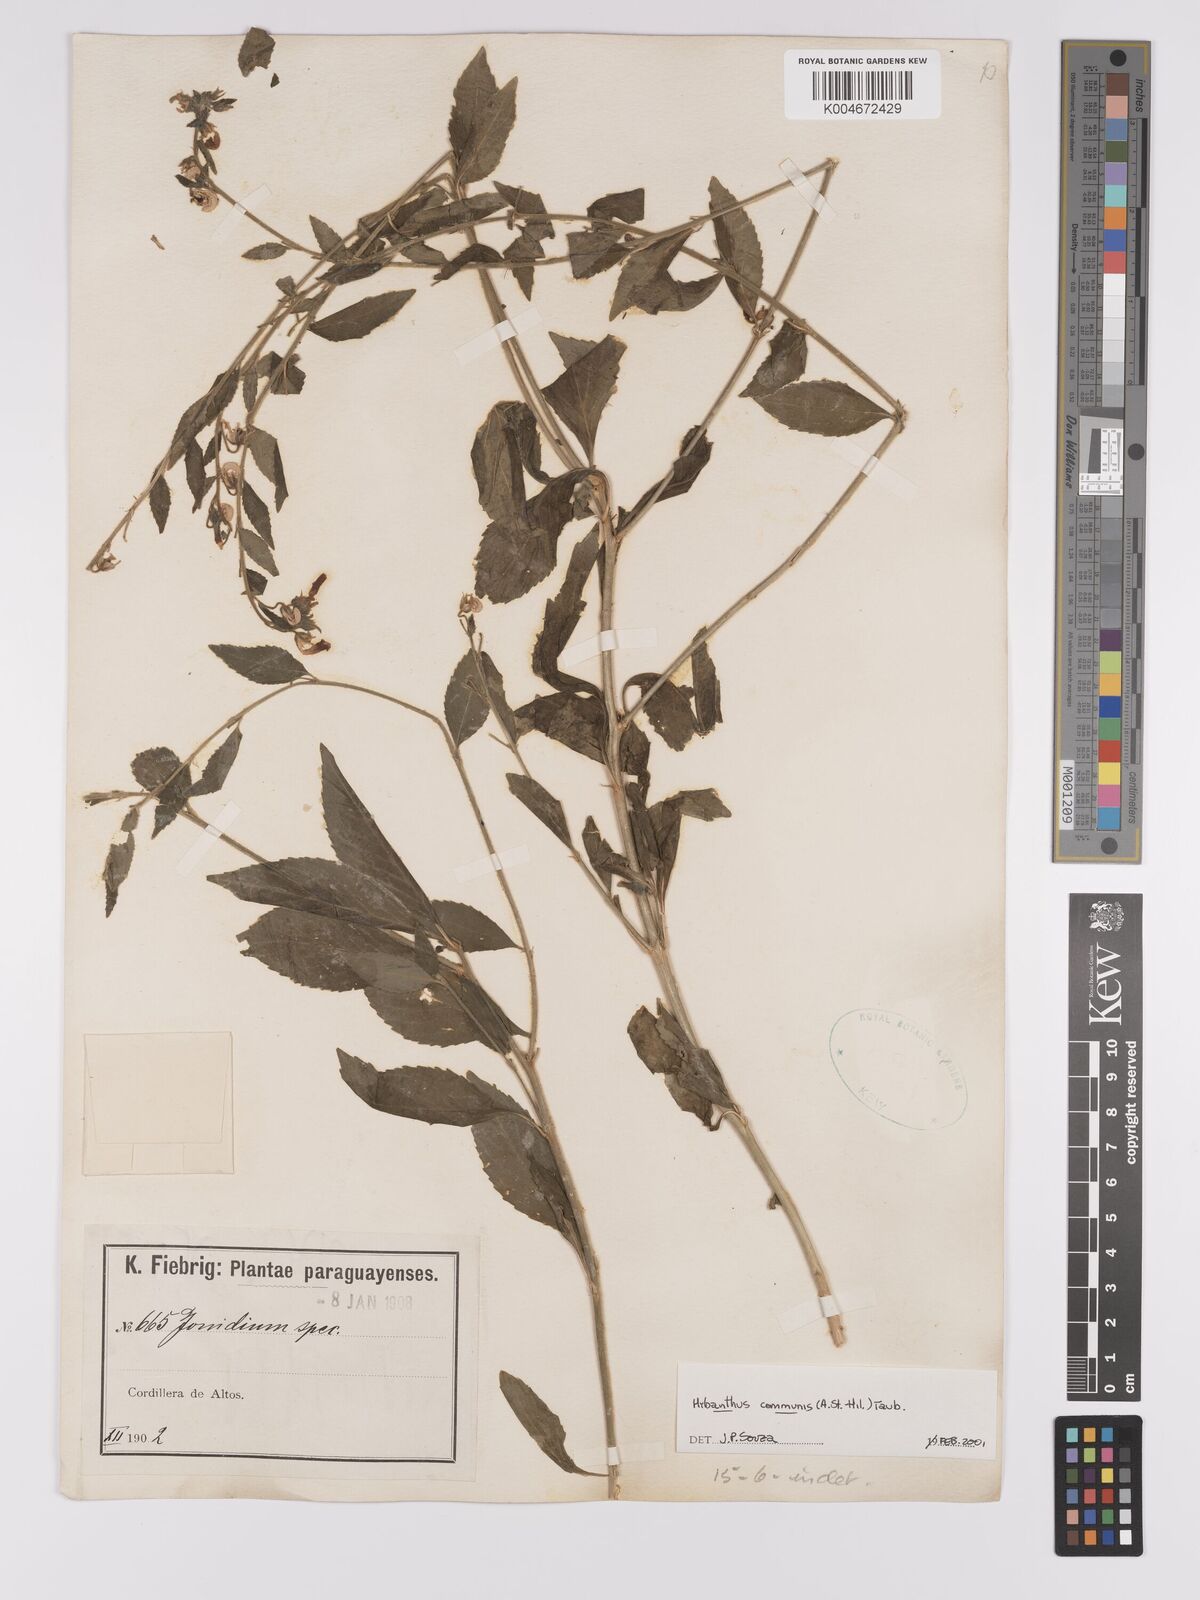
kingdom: Plantae
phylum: Tracheophyta
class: Magnoliopsida
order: Malpighiales
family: Violaceae
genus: Pombalia
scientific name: Pombalia communis
